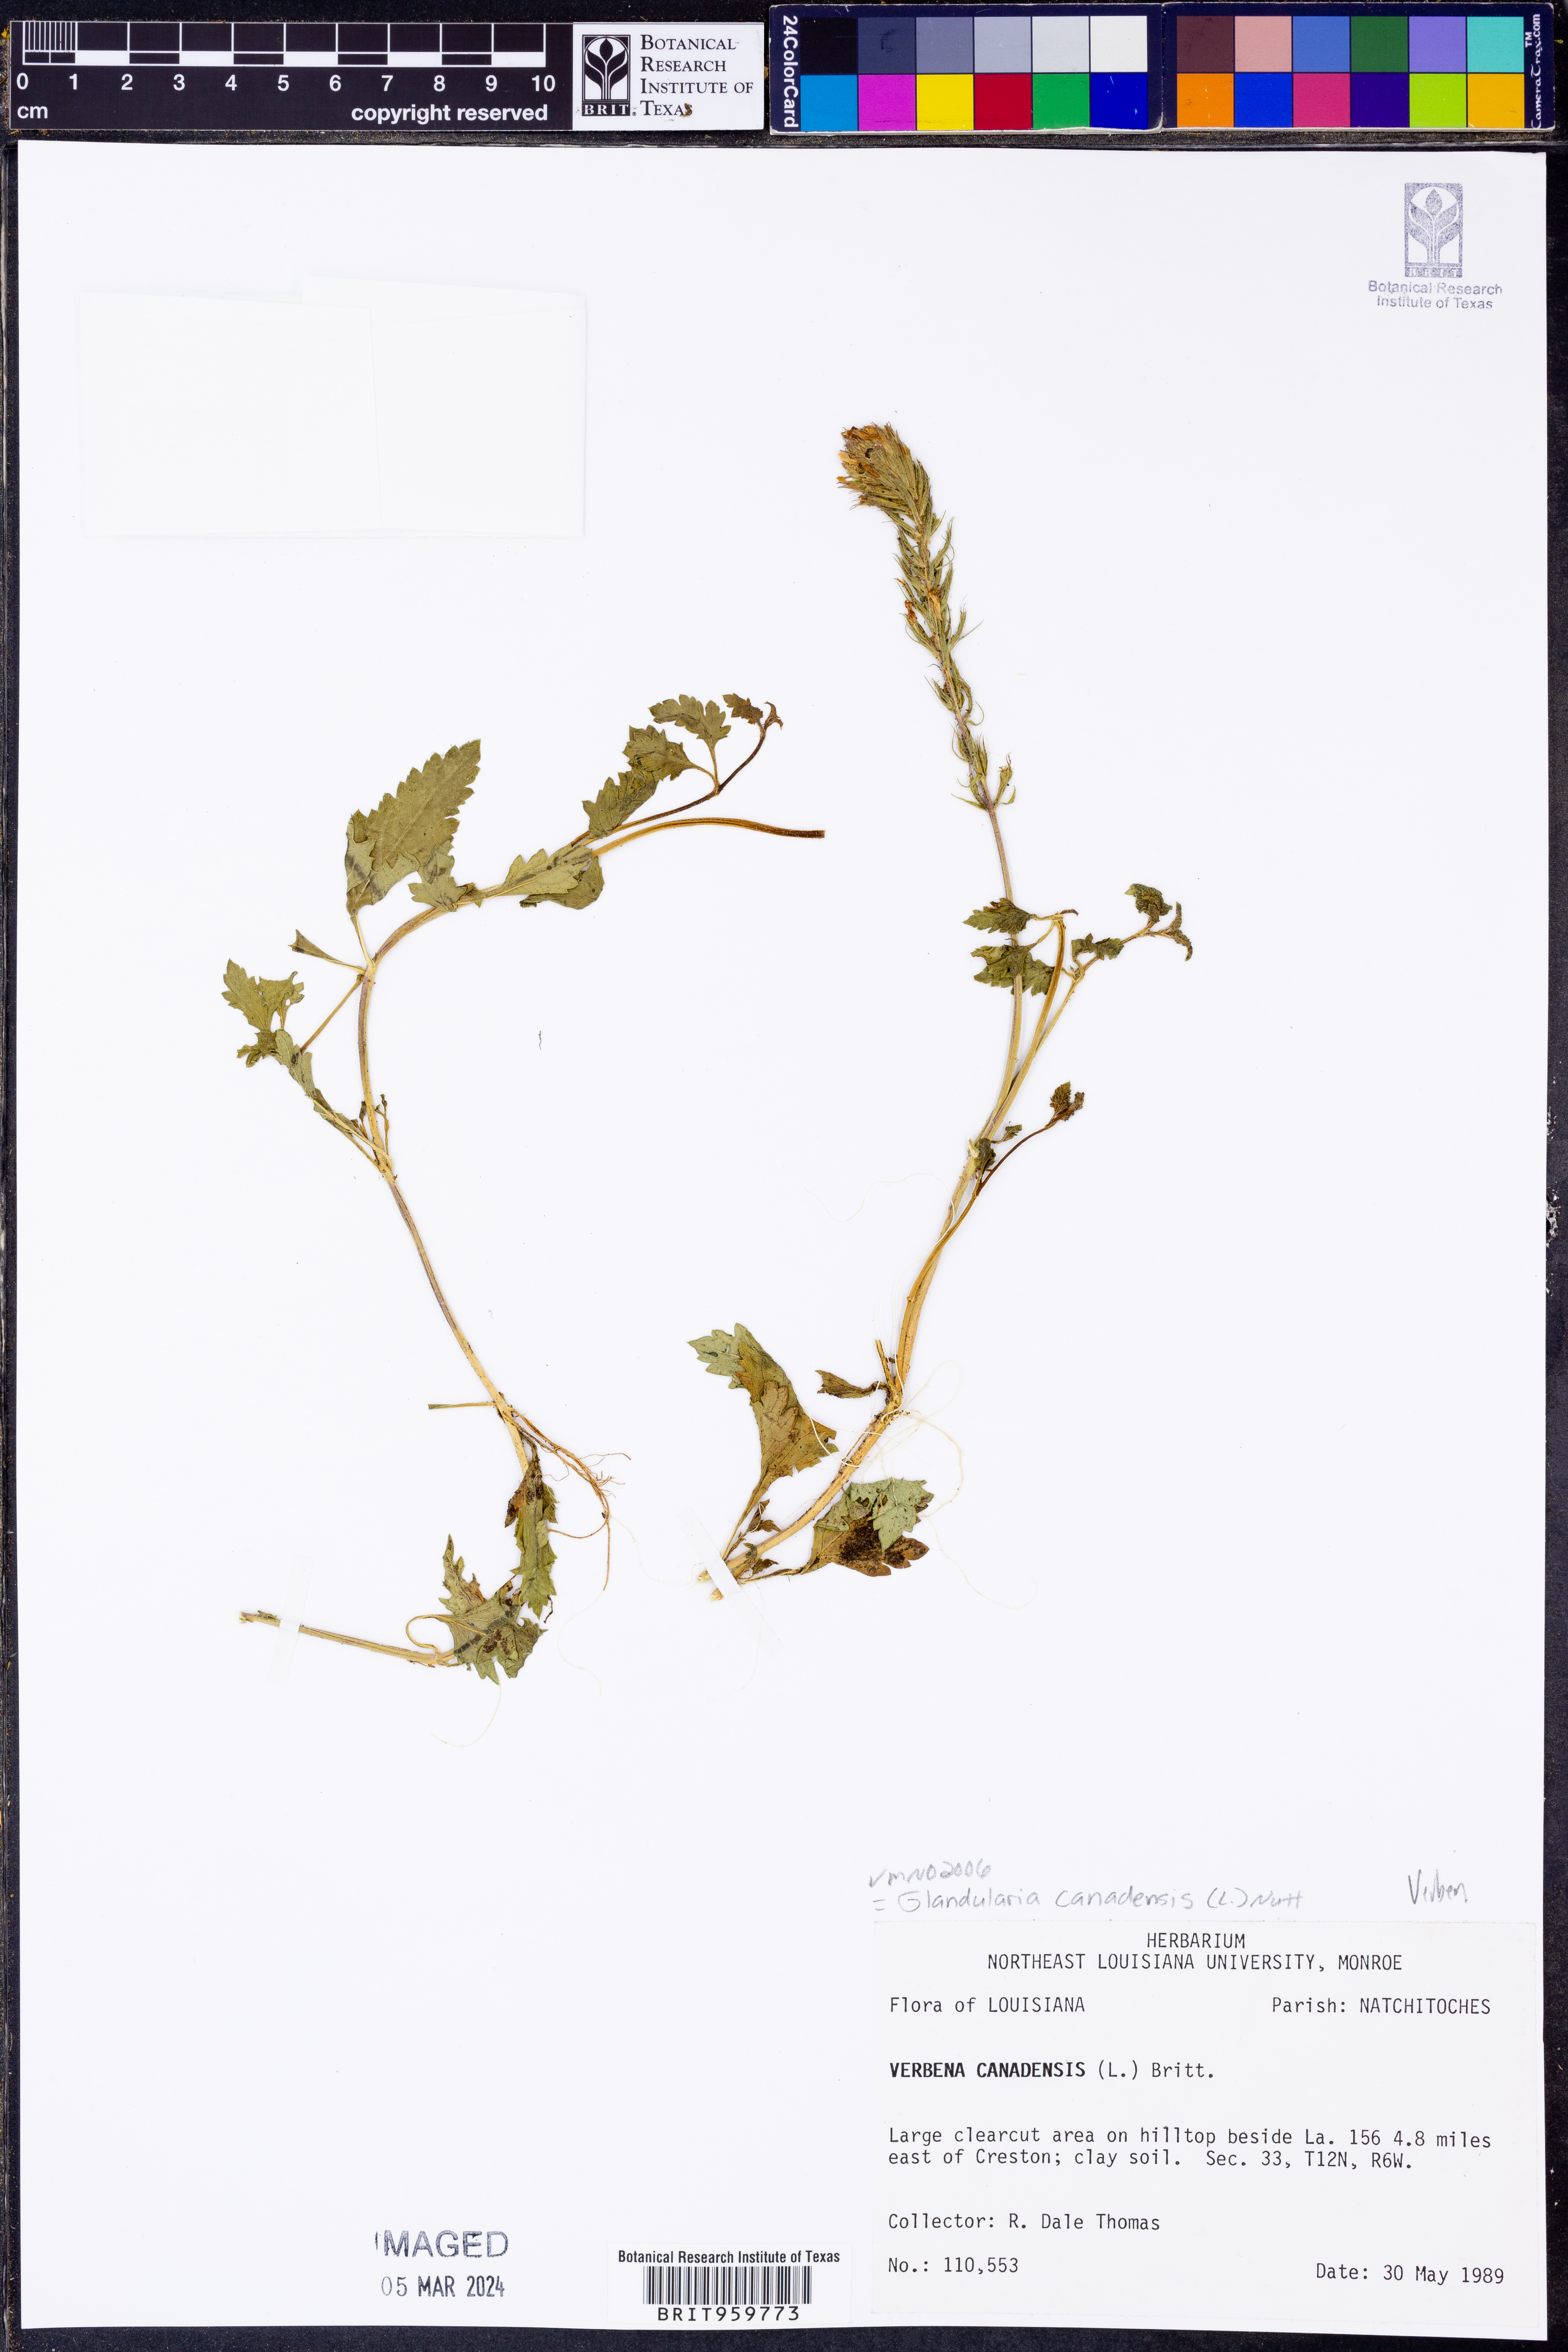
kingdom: Plantae
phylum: Tracheophyta
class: Magnoliopsida
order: Lamiales
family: Verbenaceae
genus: Verbena
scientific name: Verbena canadensis
